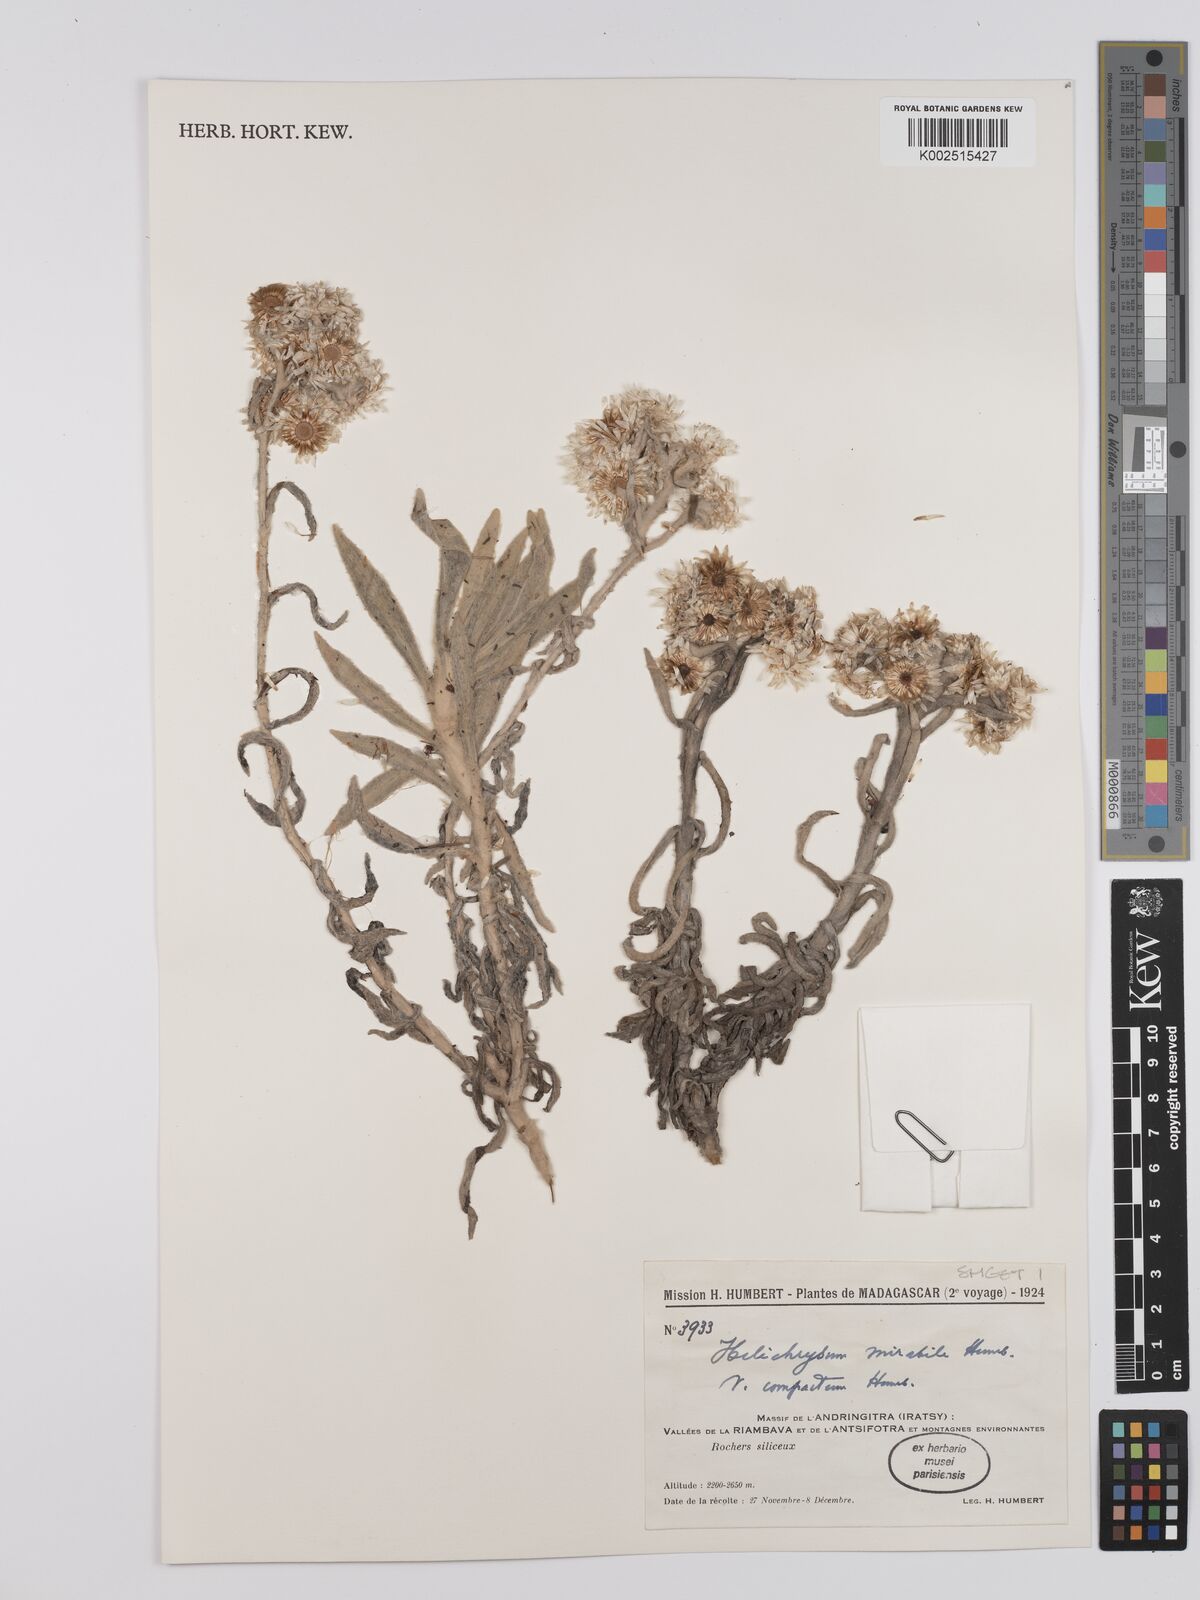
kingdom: Plantae
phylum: Tracheophyta
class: Magnoliopsida
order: Asterales
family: Asteraceae
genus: Helichrysum
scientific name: Helichrysum mirabile
